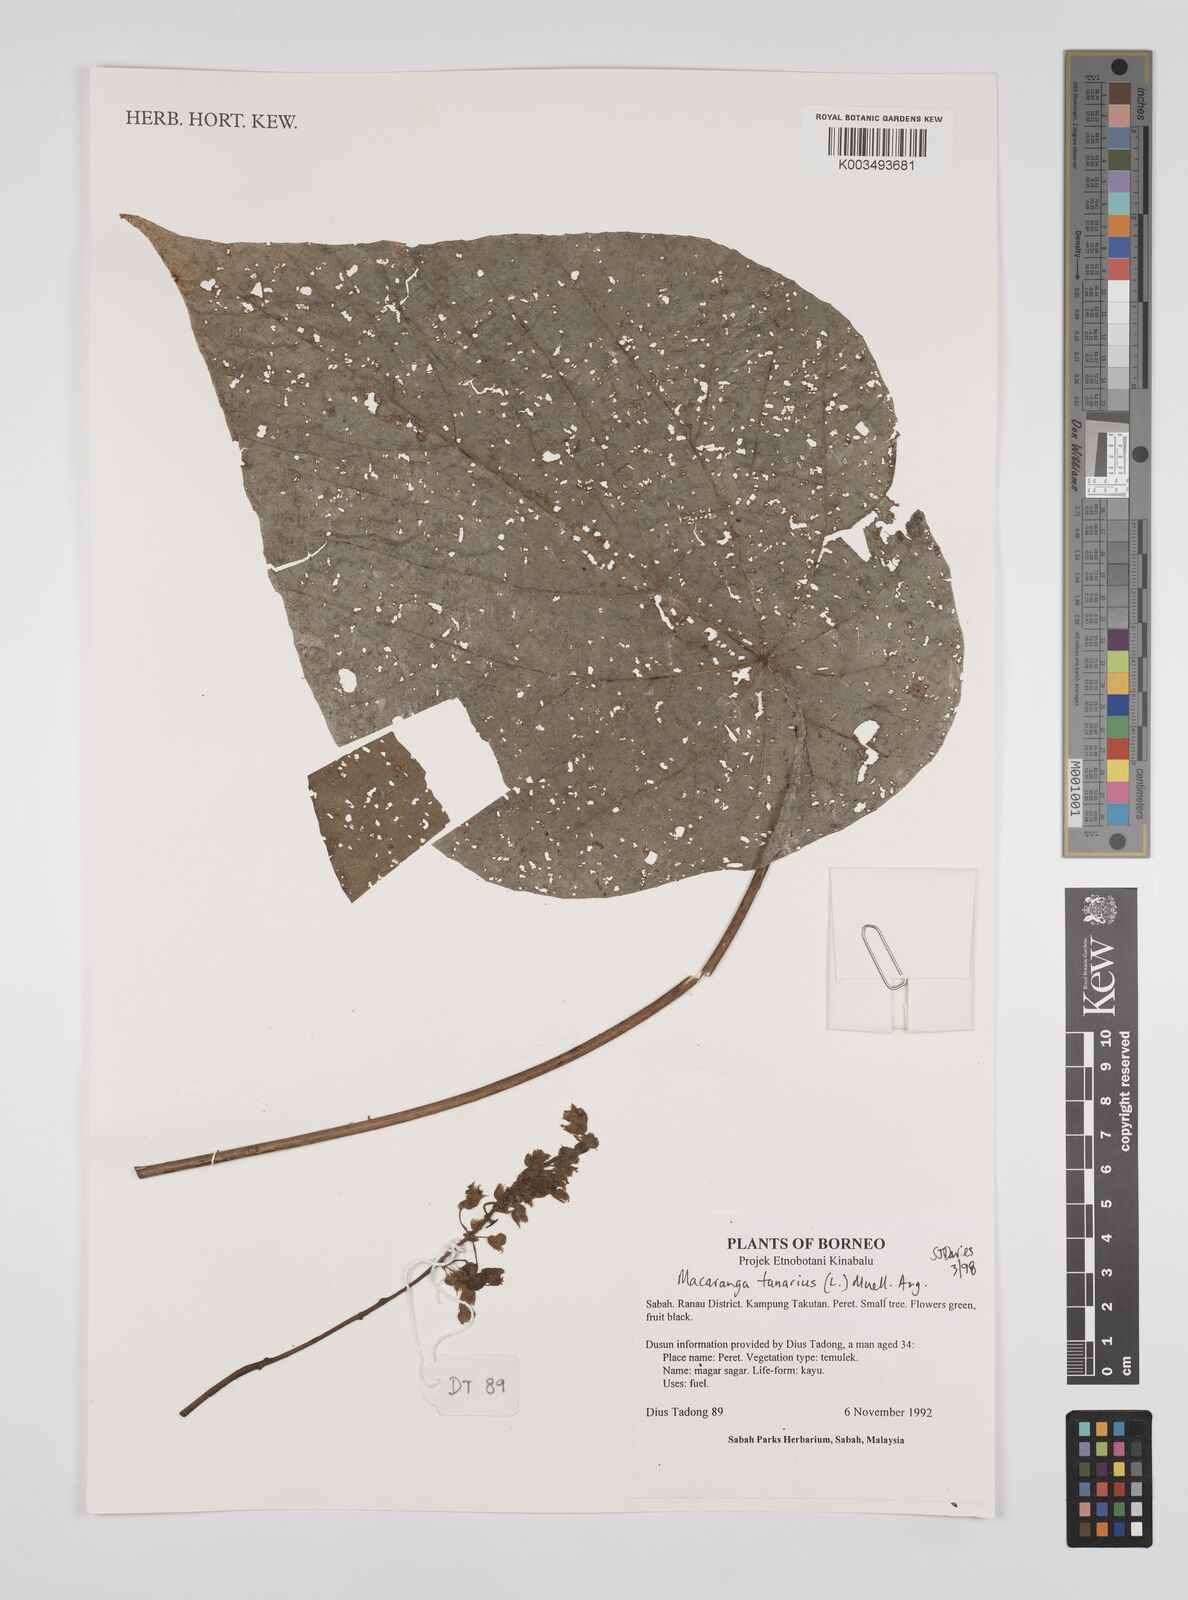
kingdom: Plantae
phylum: Tracheophyta
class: Magnoliopsida
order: Malpighiales
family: Euphorbiaceae
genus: Macaranga
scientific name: Macaranga tanarius
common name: Parasol leaf tree
